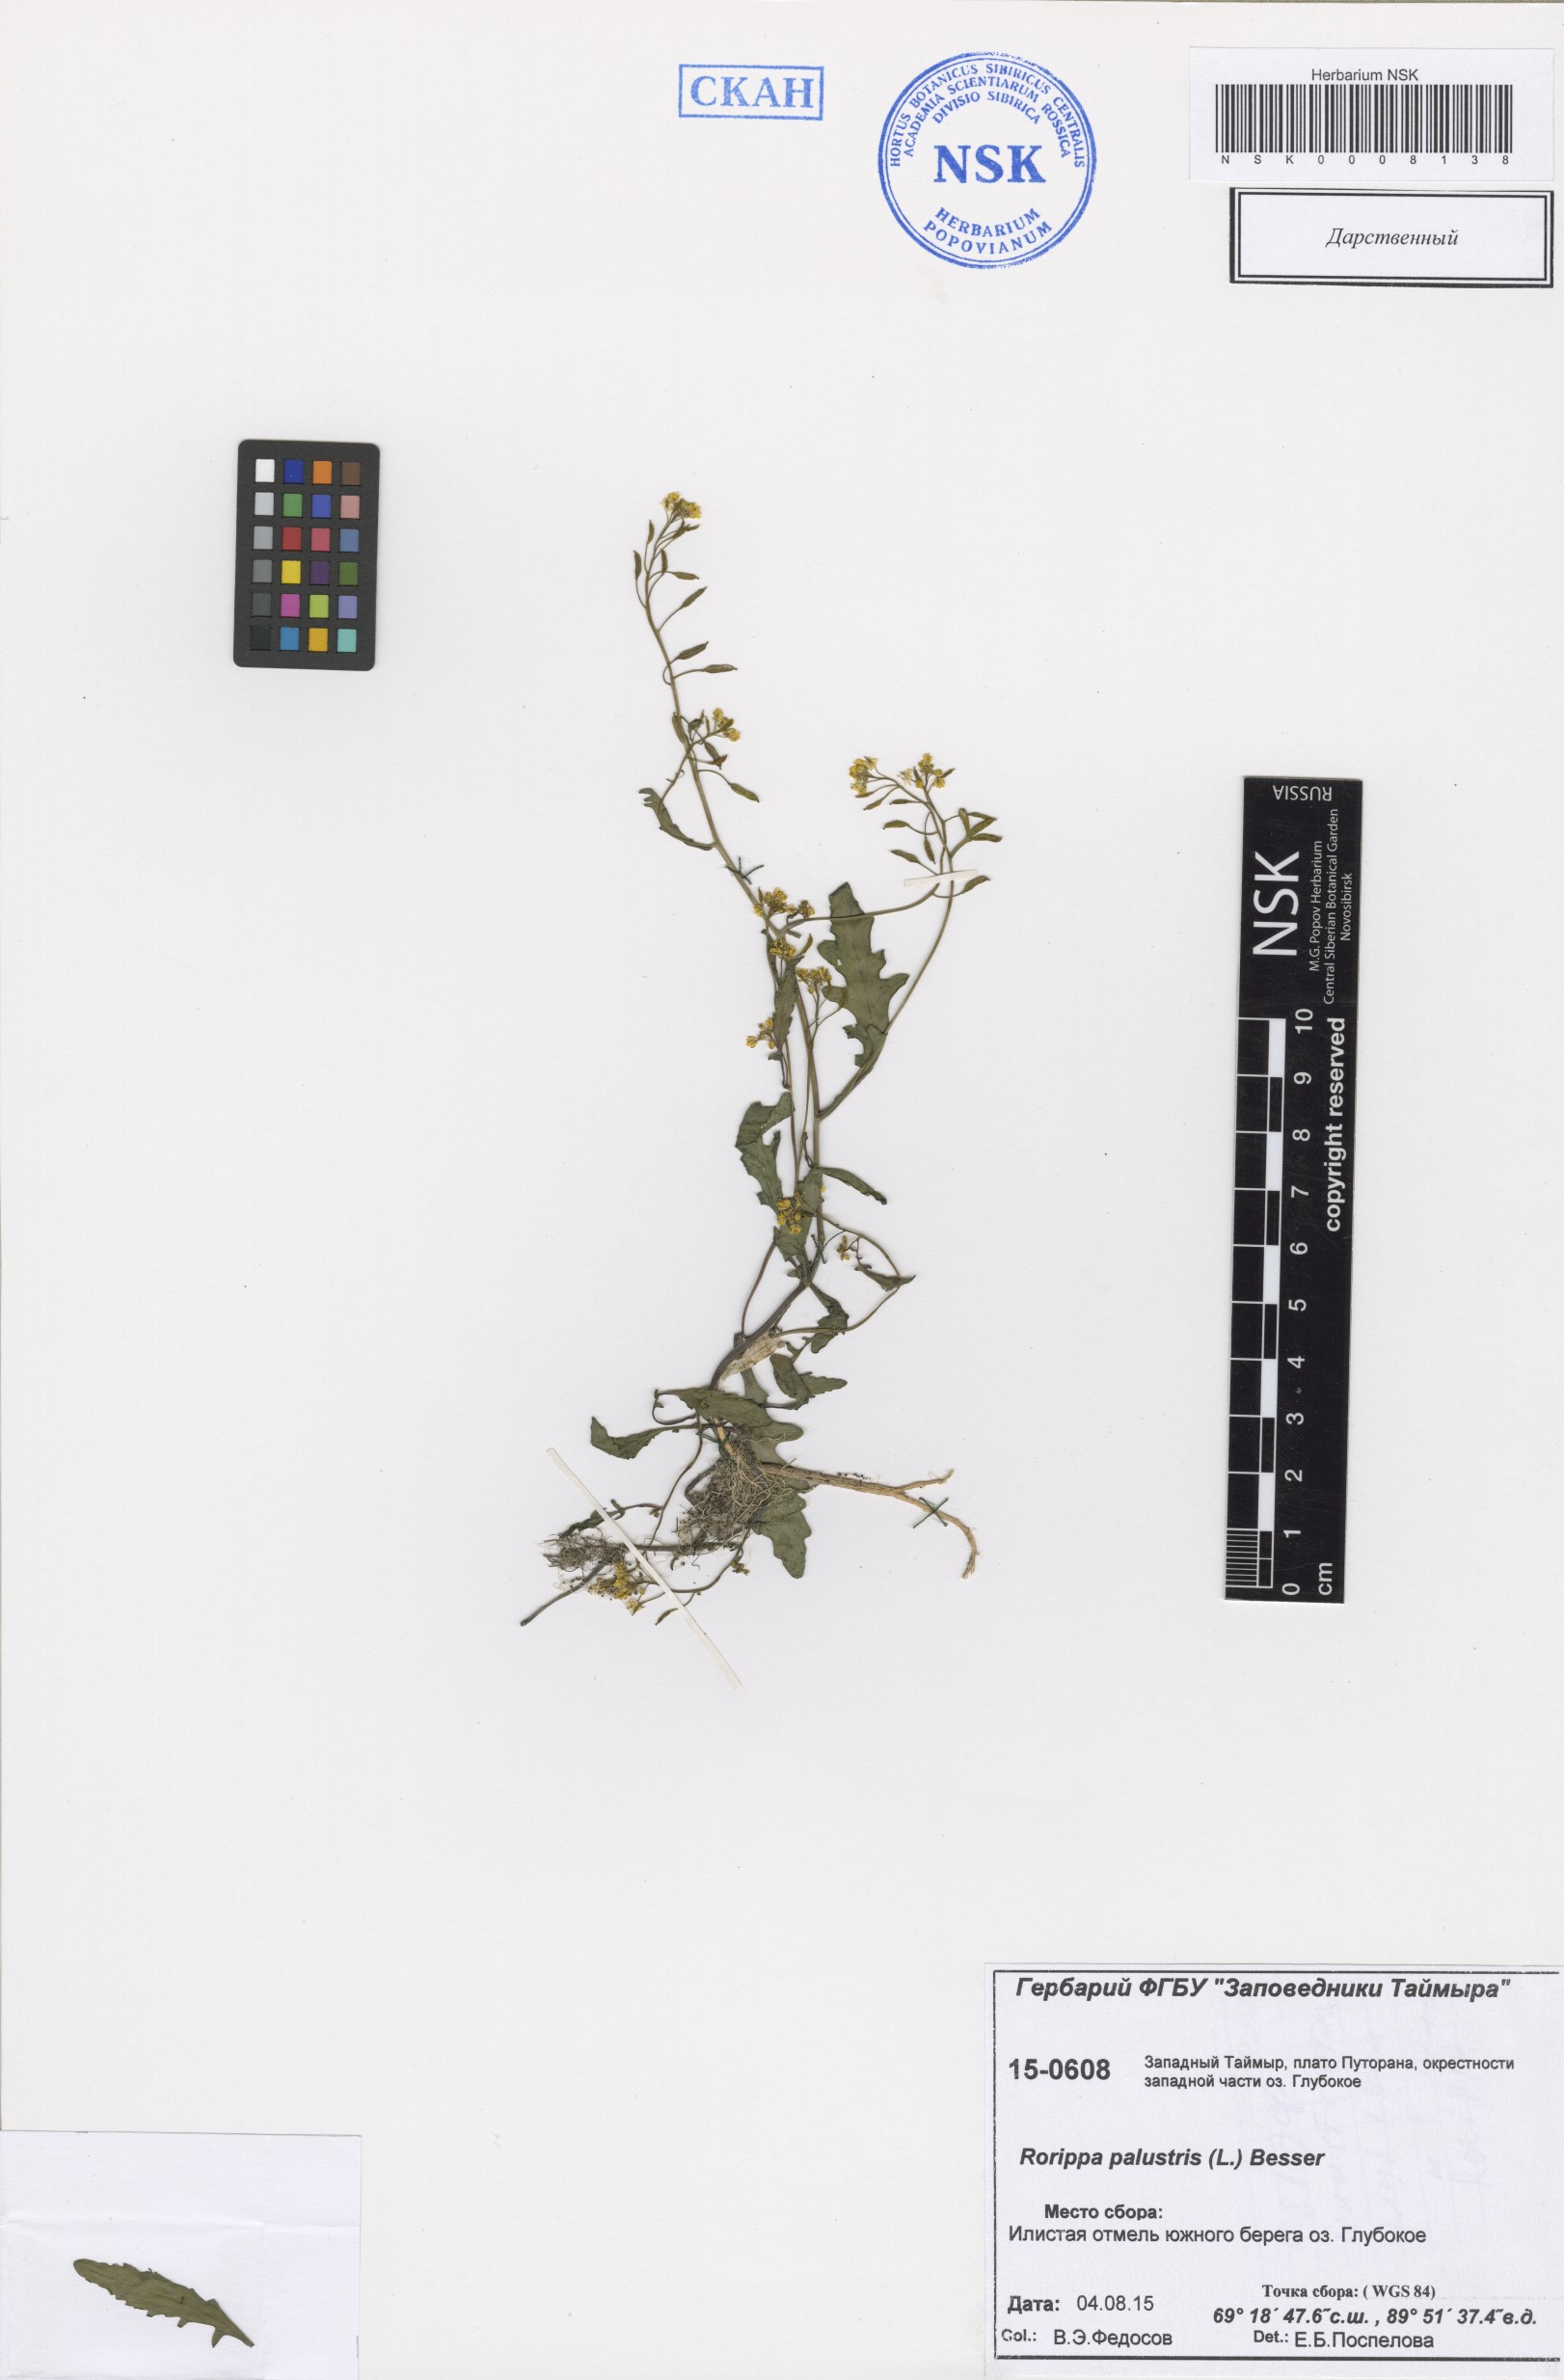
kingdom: Plantae
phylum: Tracheophyta
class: Magnoliopsida
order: Brassicales
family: Brassicaceae
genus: Rorippa
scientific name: Rorippa palustris
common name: Marsh yellow-cress
